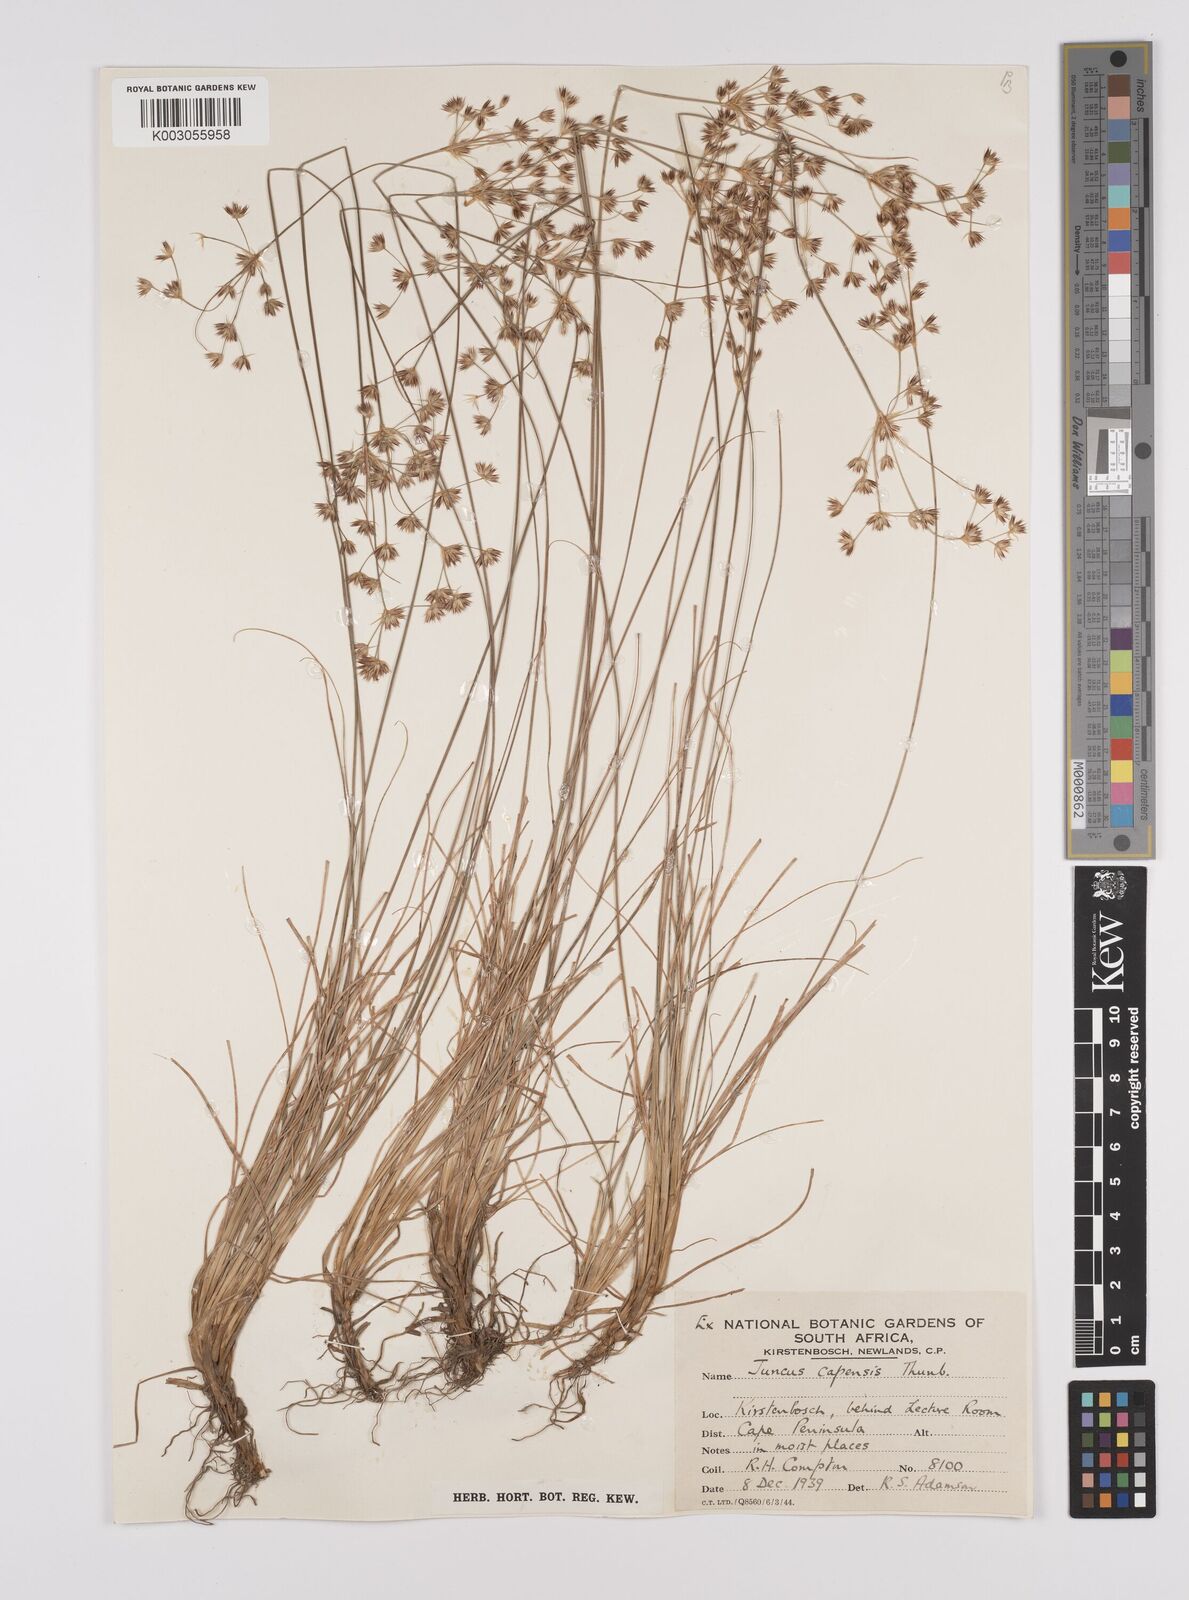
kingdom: Plantae
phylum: Tracheophyta
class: Liliopsida
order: Poales
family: Juncaceae
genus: Juncus
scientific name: Juncus capensis
